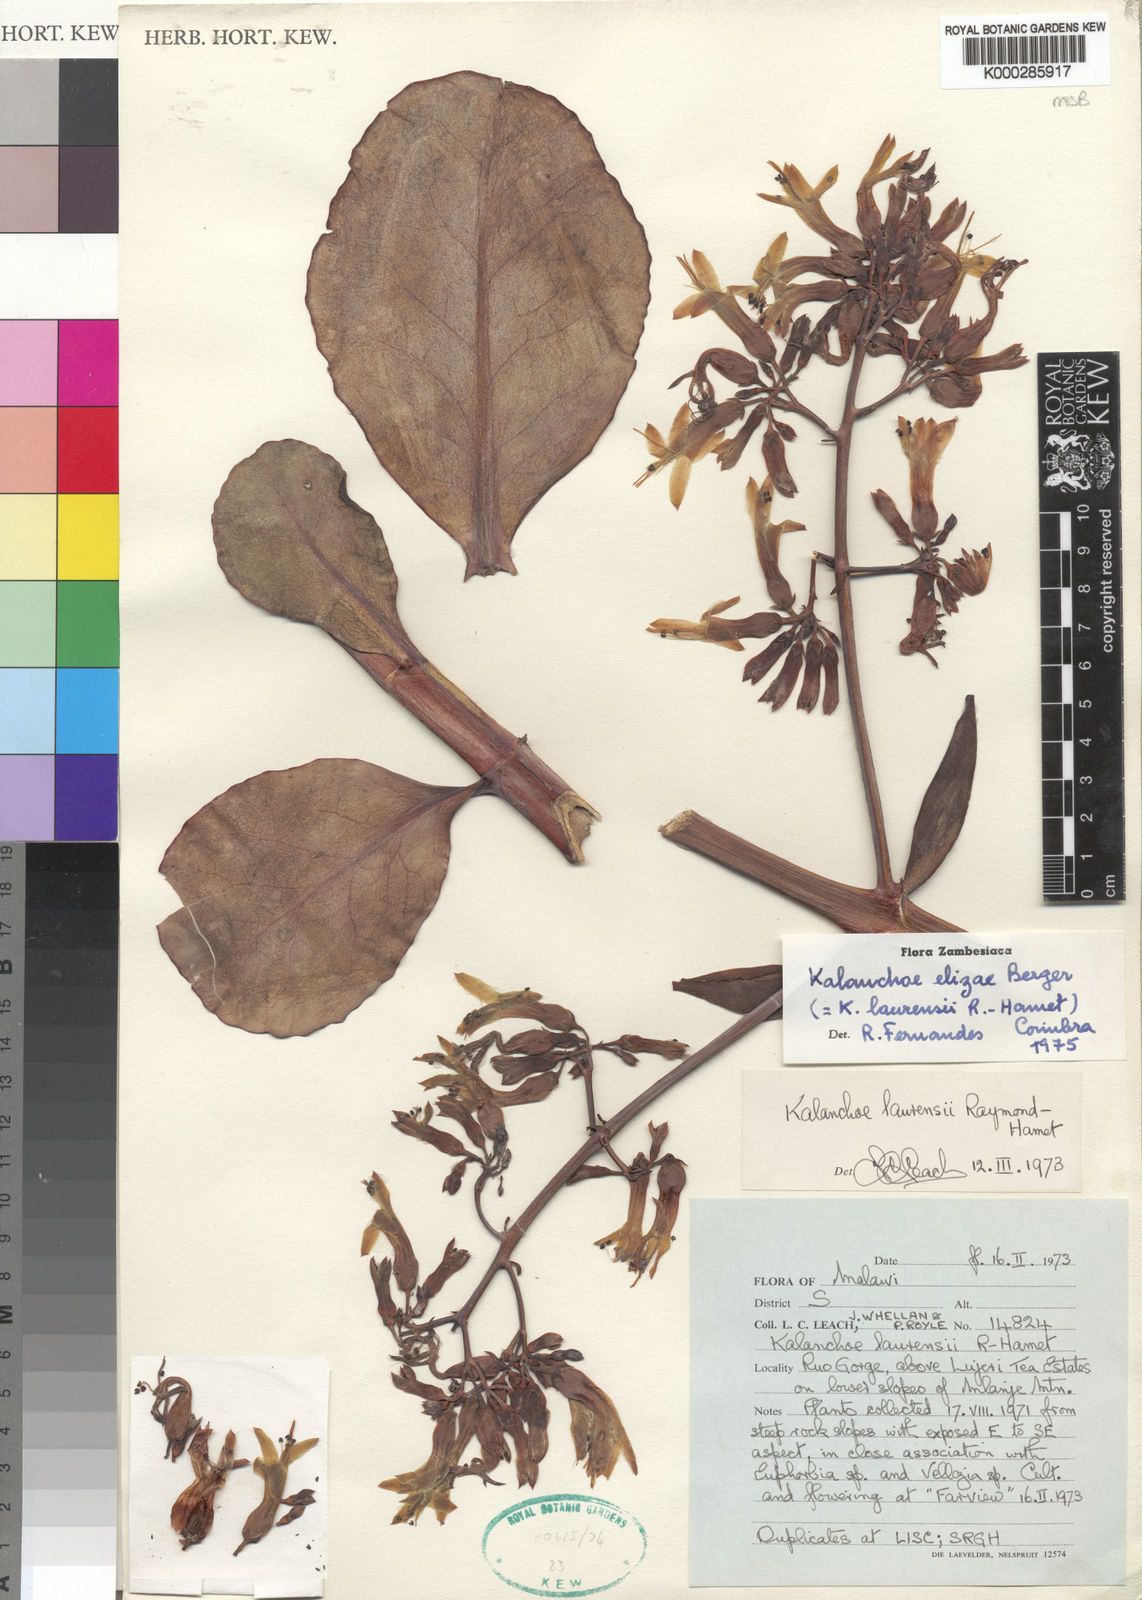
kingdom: Plantae
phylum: Tracheophyta
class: Magnoliopsida
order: Saxifragales
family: Crassulaceae
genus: Kalanchoe
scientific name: Kalanchoe elizae
